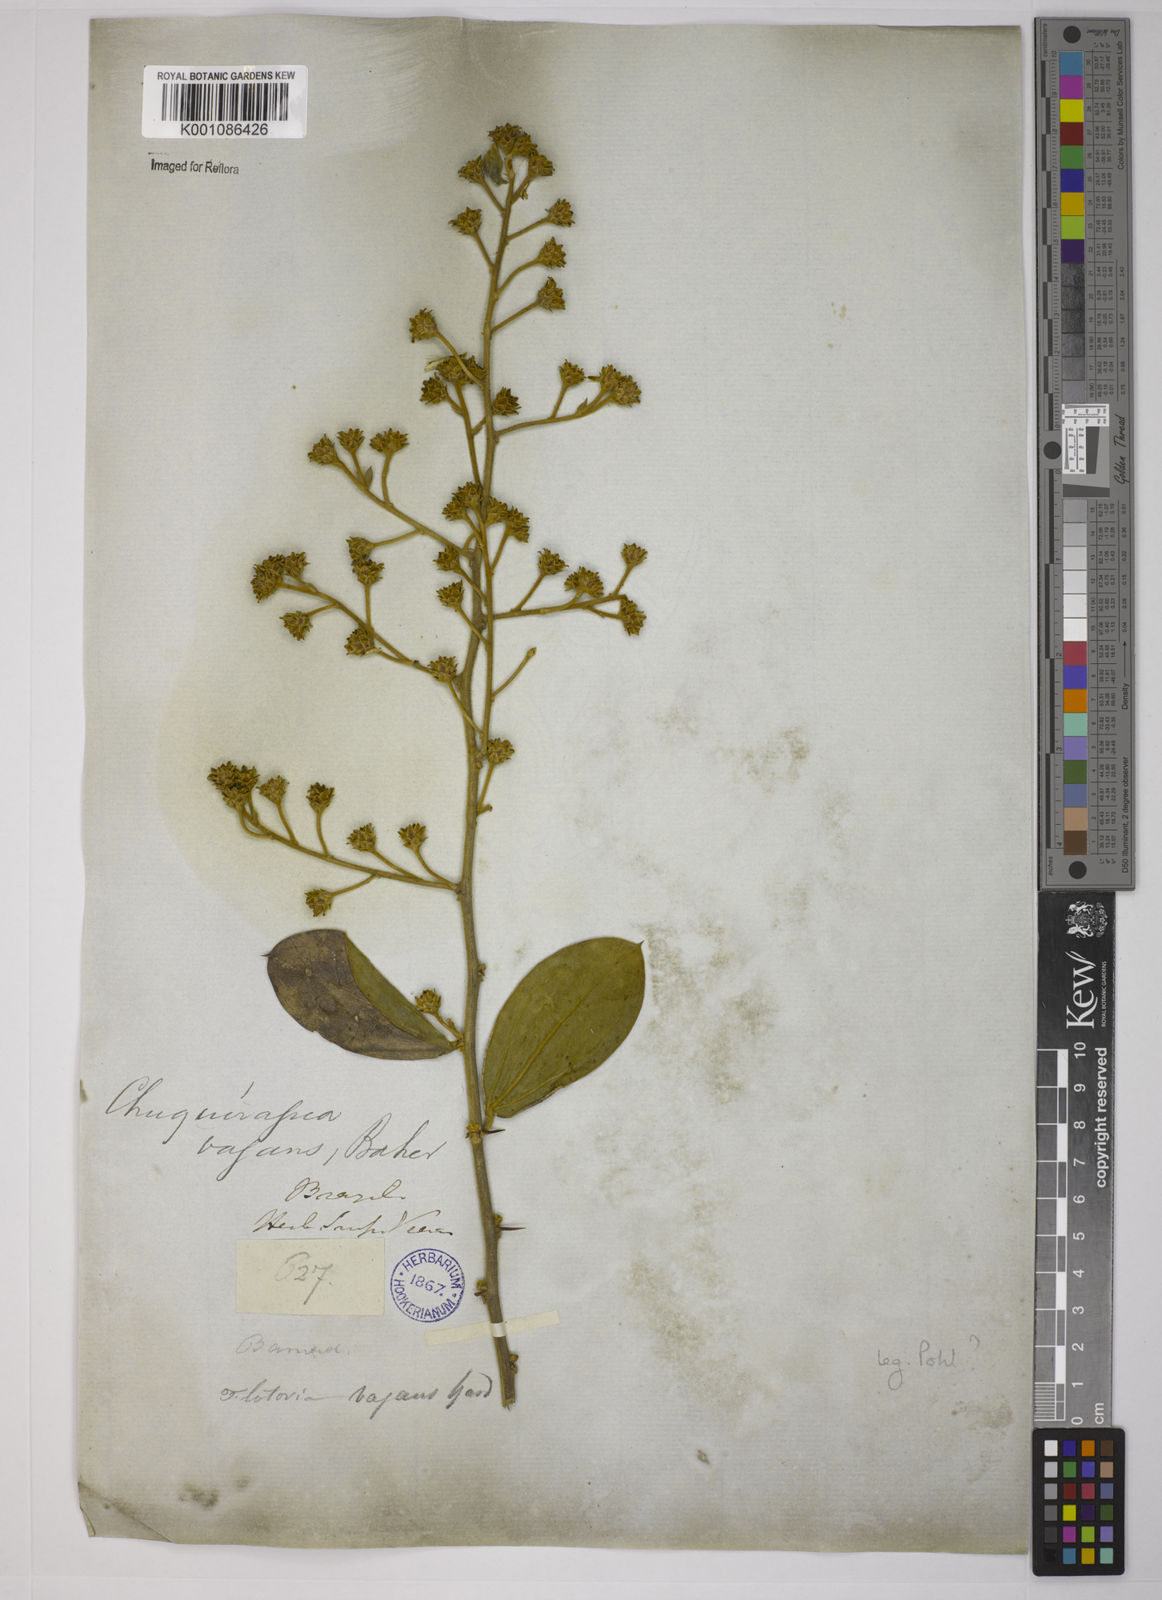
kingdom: Plantae
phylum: Tracheophyta
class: Magnoliopsida
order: Asterales
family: Asteraceae
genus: Dasyphyllum
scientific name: Dasyphyllum vagans
